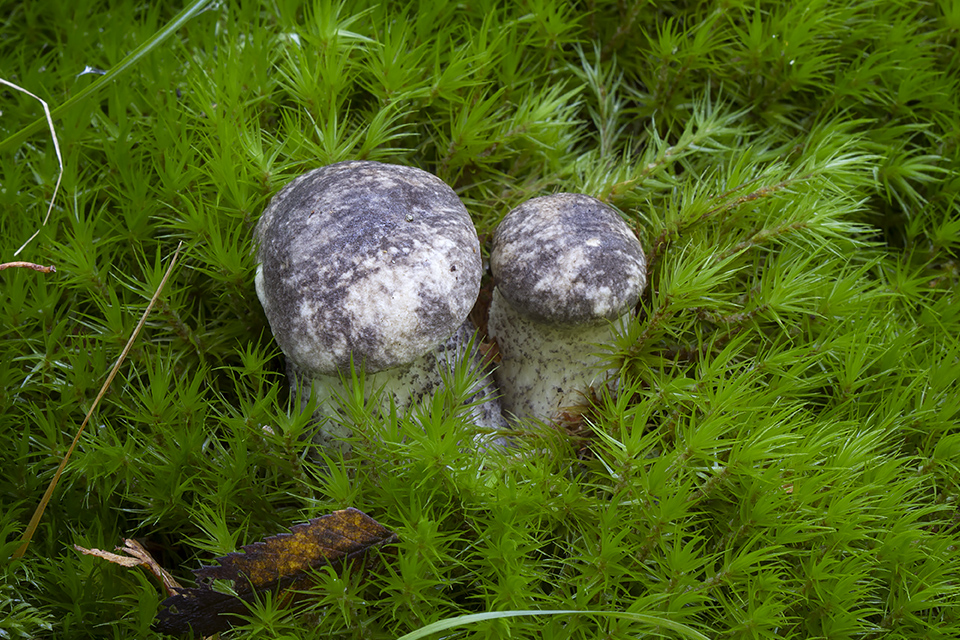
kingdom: Fungi
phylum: Basidiomycota
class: Agaricomycetes
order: Boletales
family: Boletaceae
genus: Leccinum
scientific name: Leccinum variicolor
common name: flammet skælrørhat
